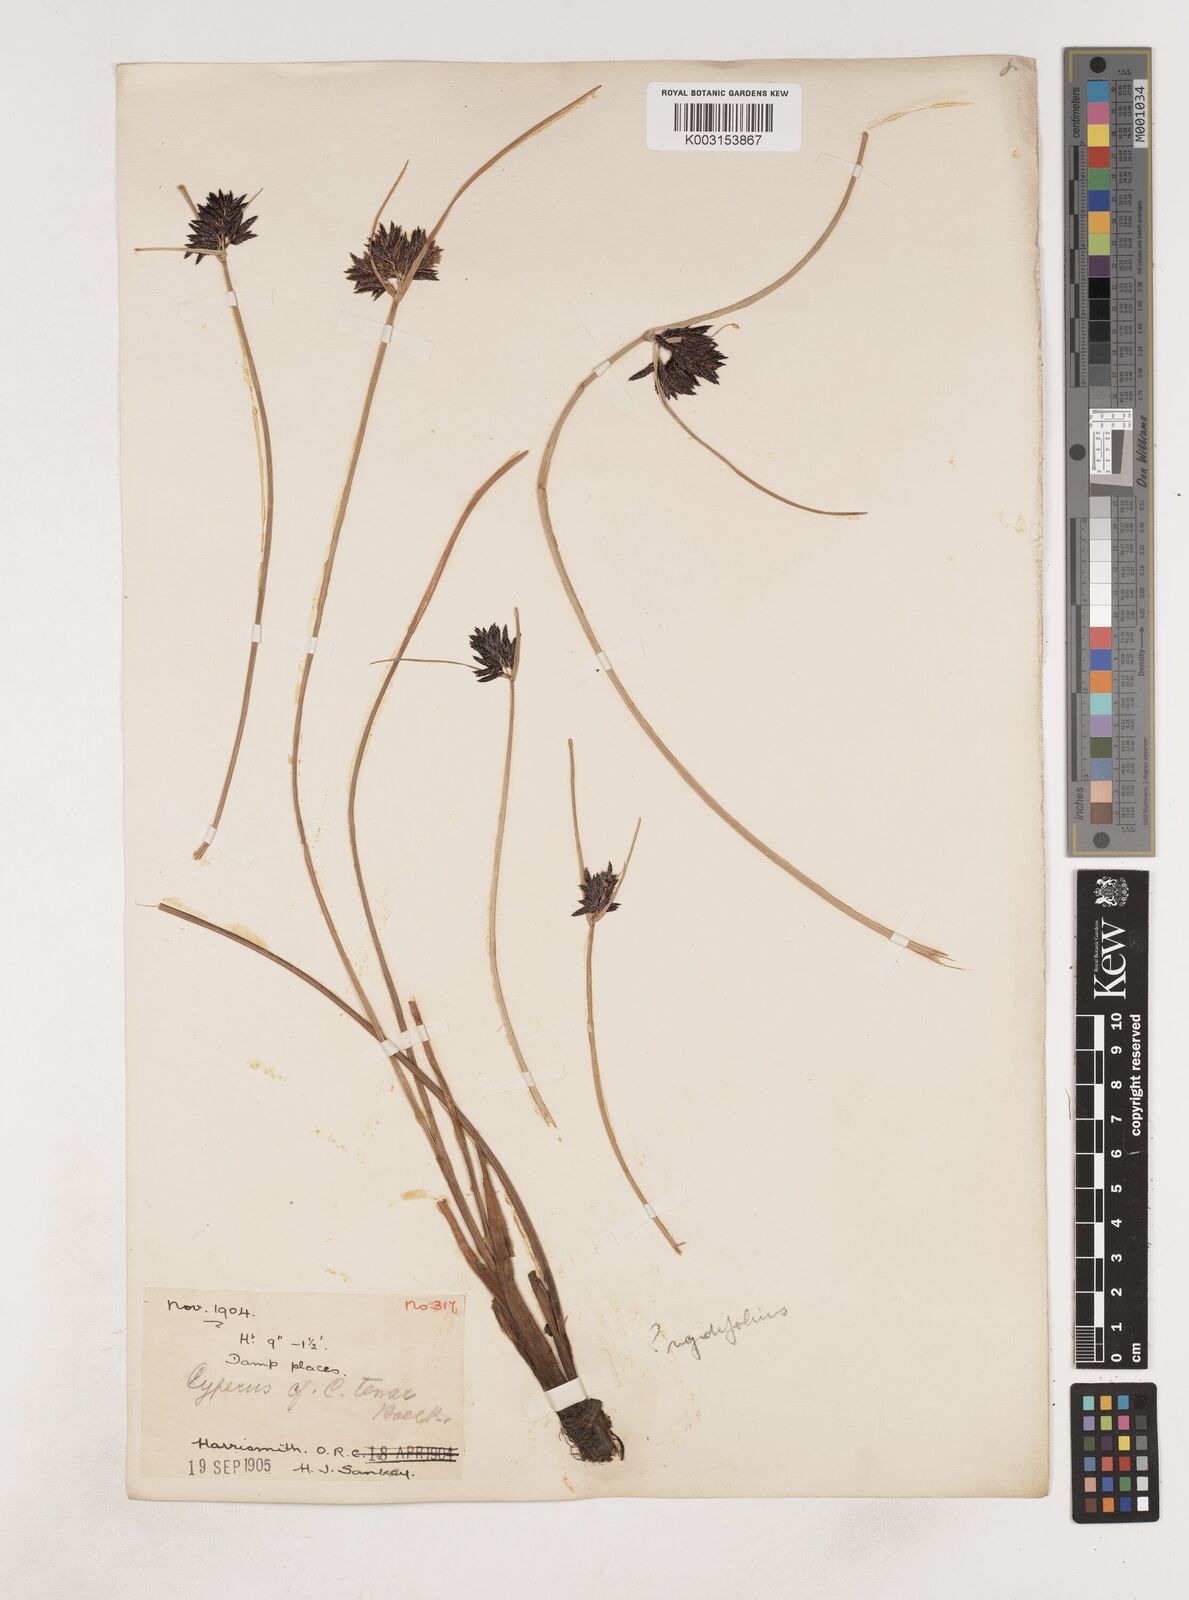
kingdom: Plantae
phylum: Tracheophyta
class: Liliopsida
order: Poales
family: Cyperaceae
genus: Cyperus
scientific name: Cyperus
